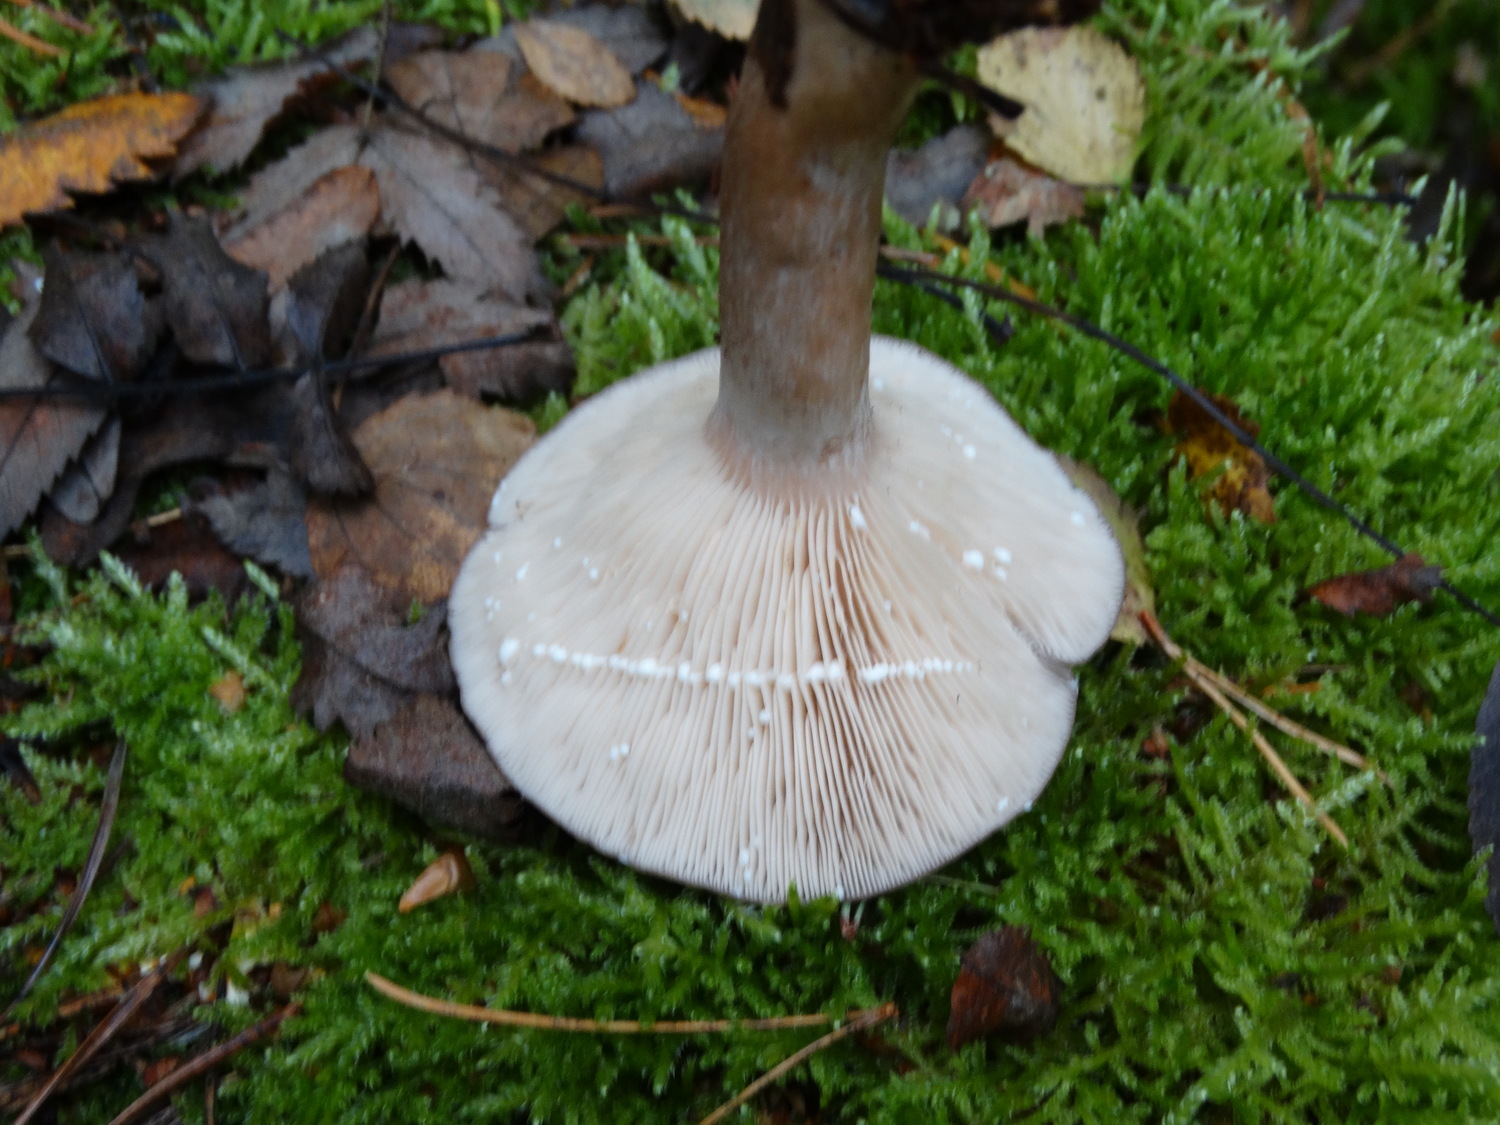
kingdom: Fungi
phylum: Basidiomycota
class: Agaricomycetes
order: Russulales
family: Russulaceae
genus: Lactarius
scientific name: Lactarius vietus
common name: violetgrå mælkehat
